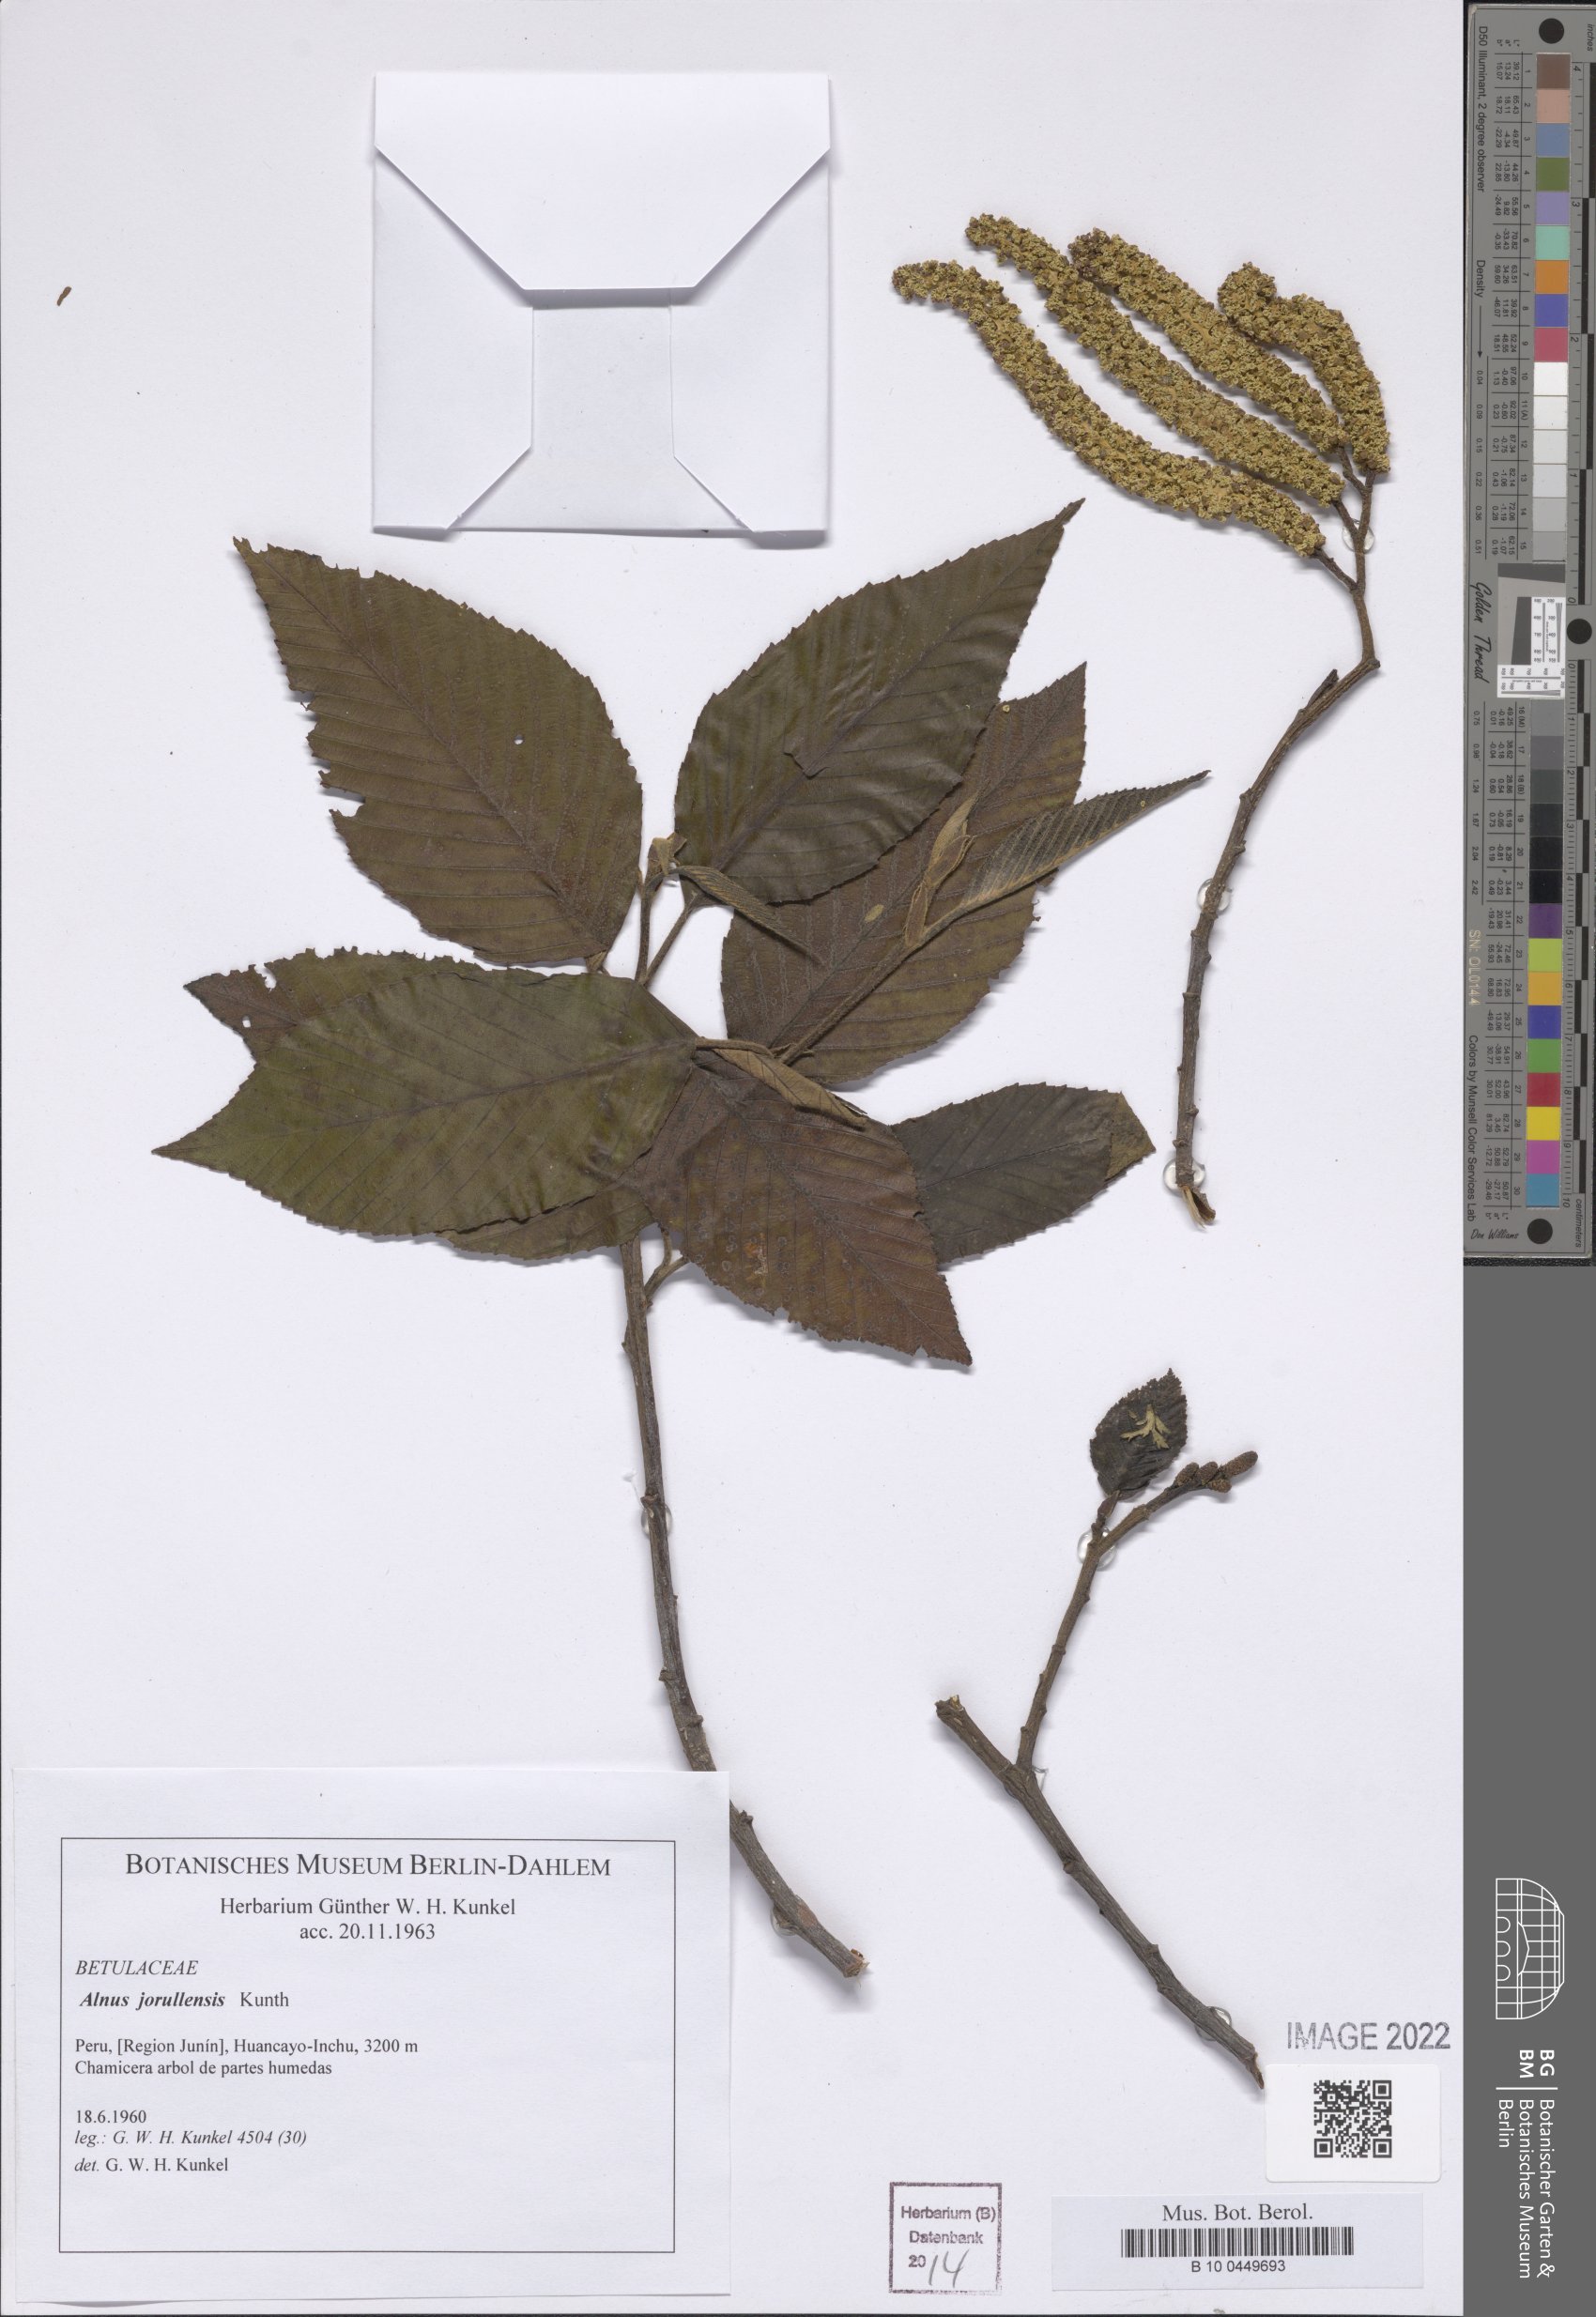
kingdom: Plantae
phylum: Tracheophyta
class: Magnoliopsida
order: Fagales
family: Betulaceae
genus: Alnus
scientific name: Alnus jorullensis
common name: Evergreen alder
